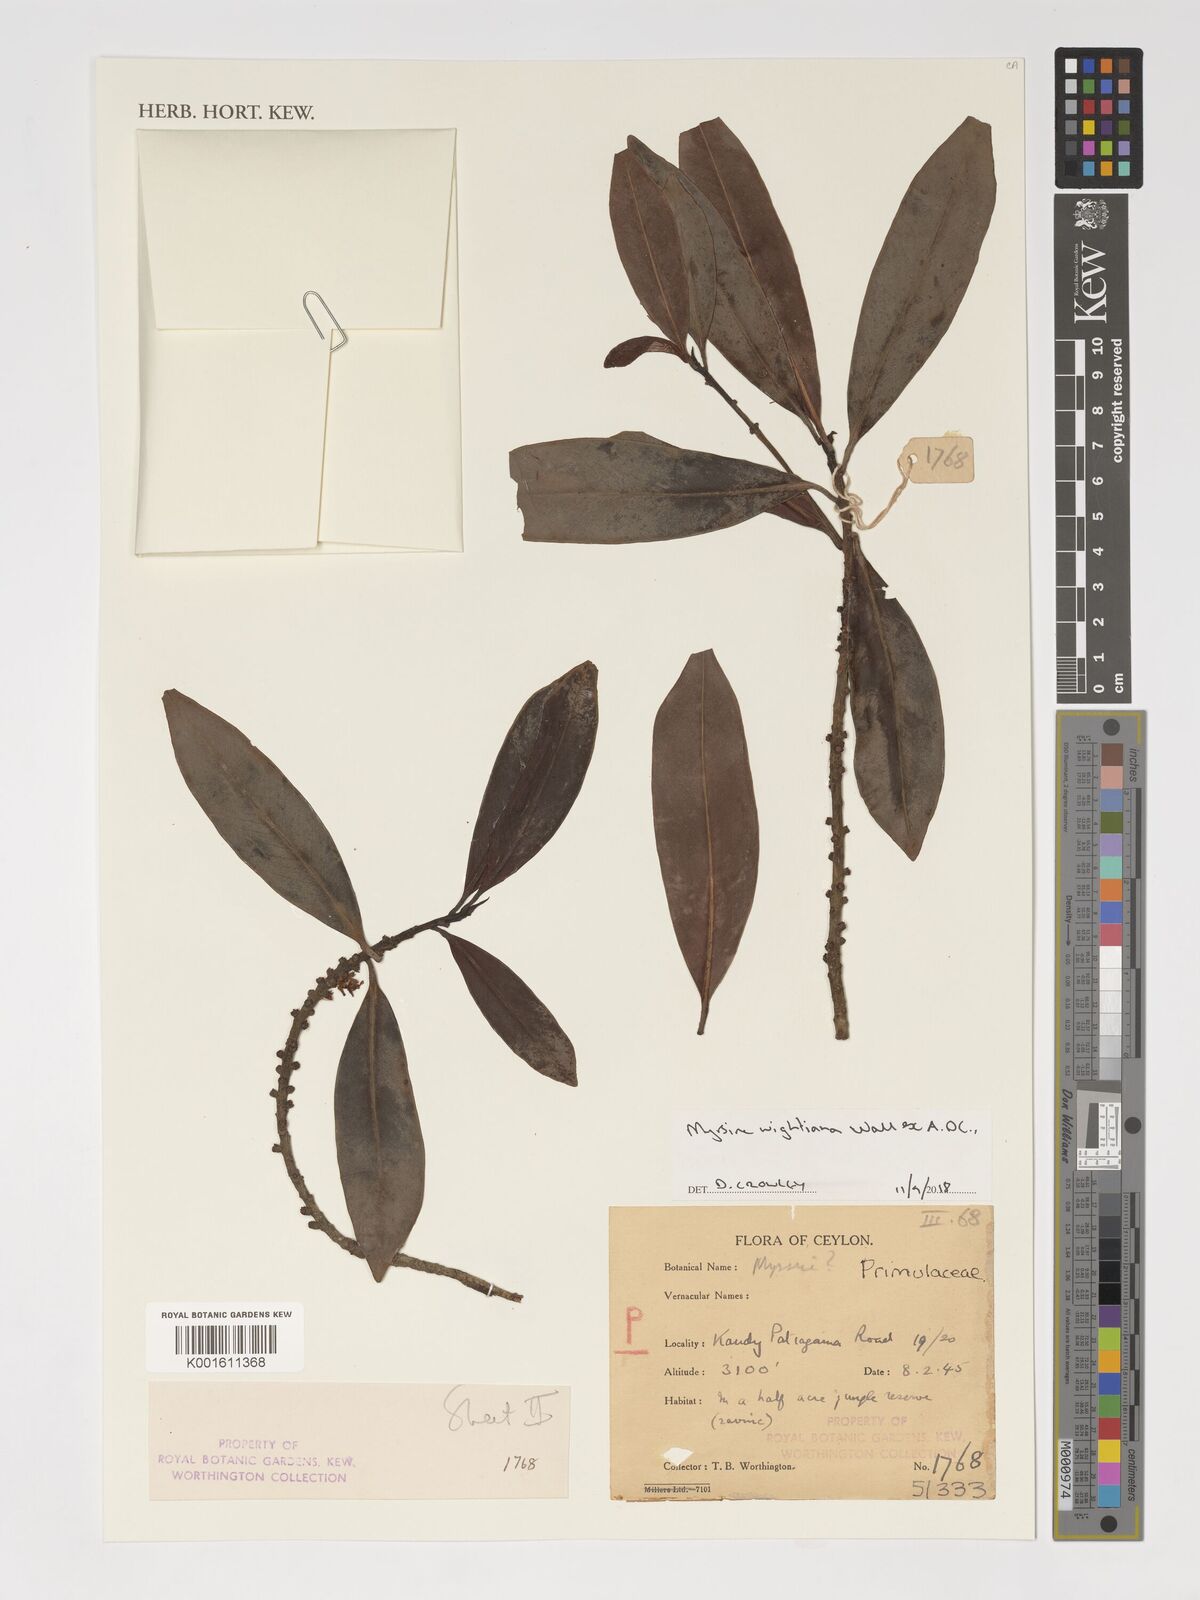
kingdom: Plantae
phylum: Tracheophyta
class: Magnoliopsida
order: Ericales
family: Primulaceae
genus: Myrsine
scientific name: Myrsine wightiana
